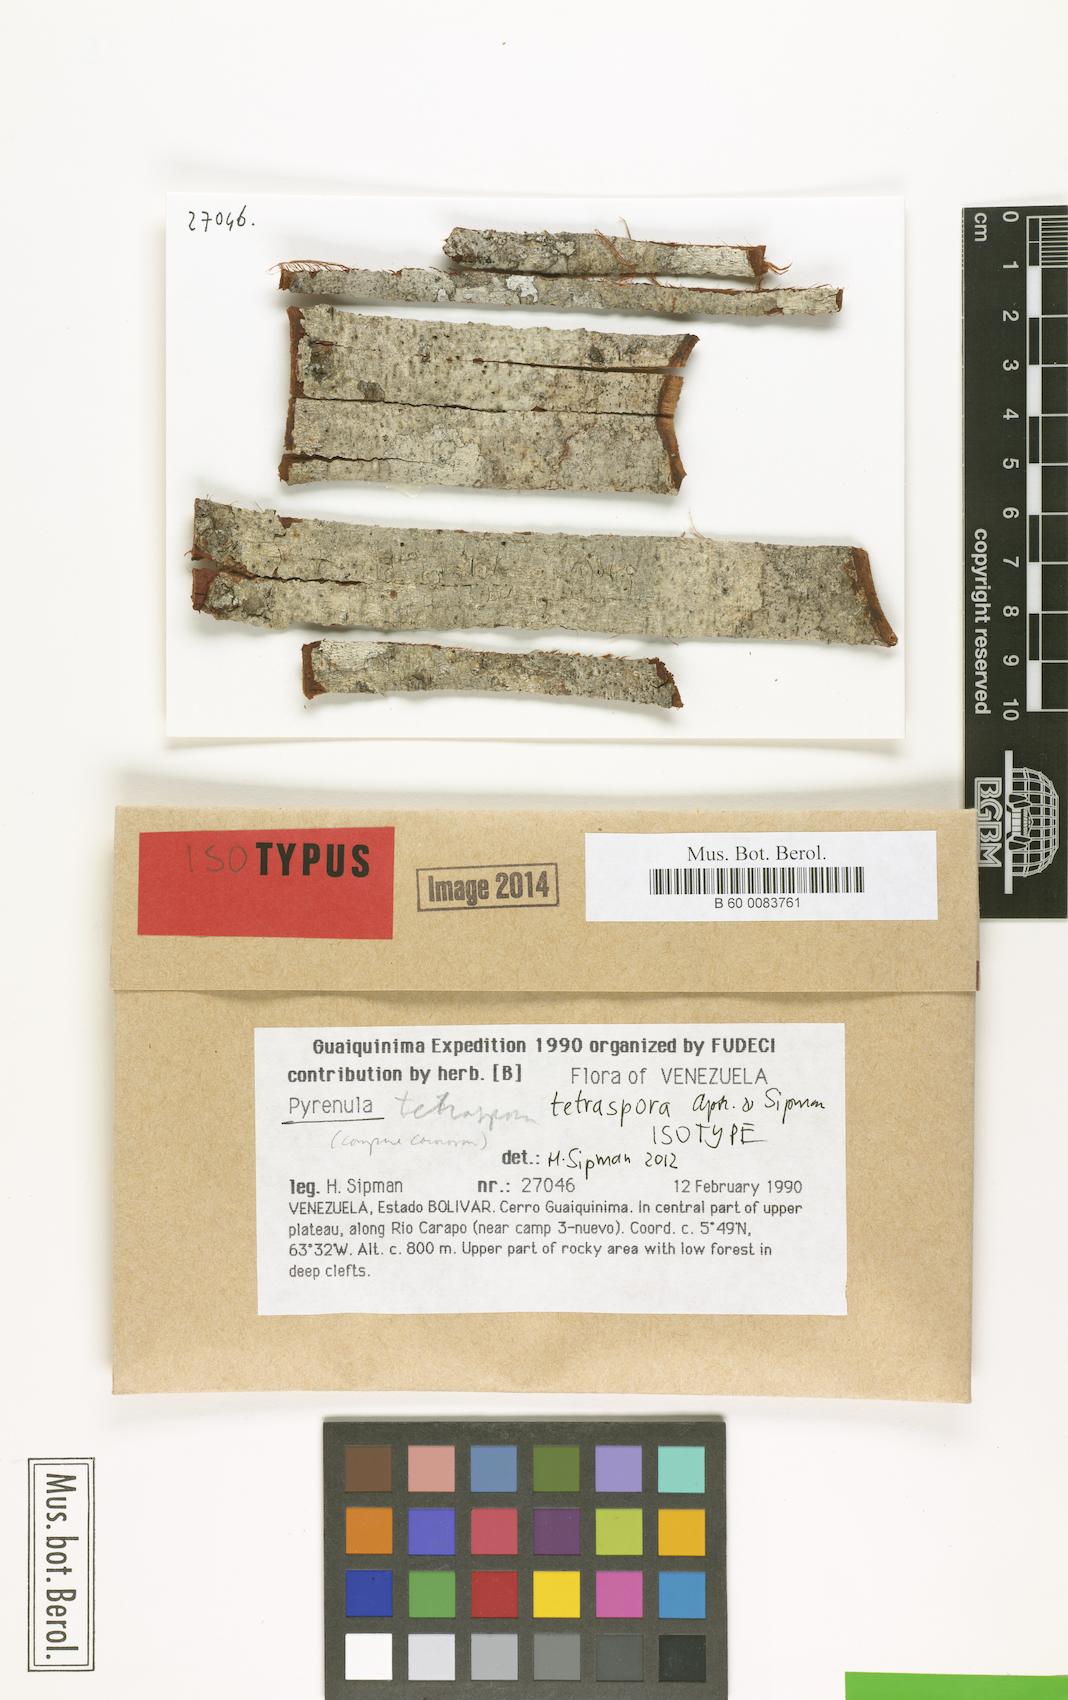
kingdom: Fungi
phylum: Ascomycota
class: Eurotiomycetes
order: Pyrenulales
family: Pyrenulaceae
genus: Pyrenula
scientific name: Pyrenula tetraspora
